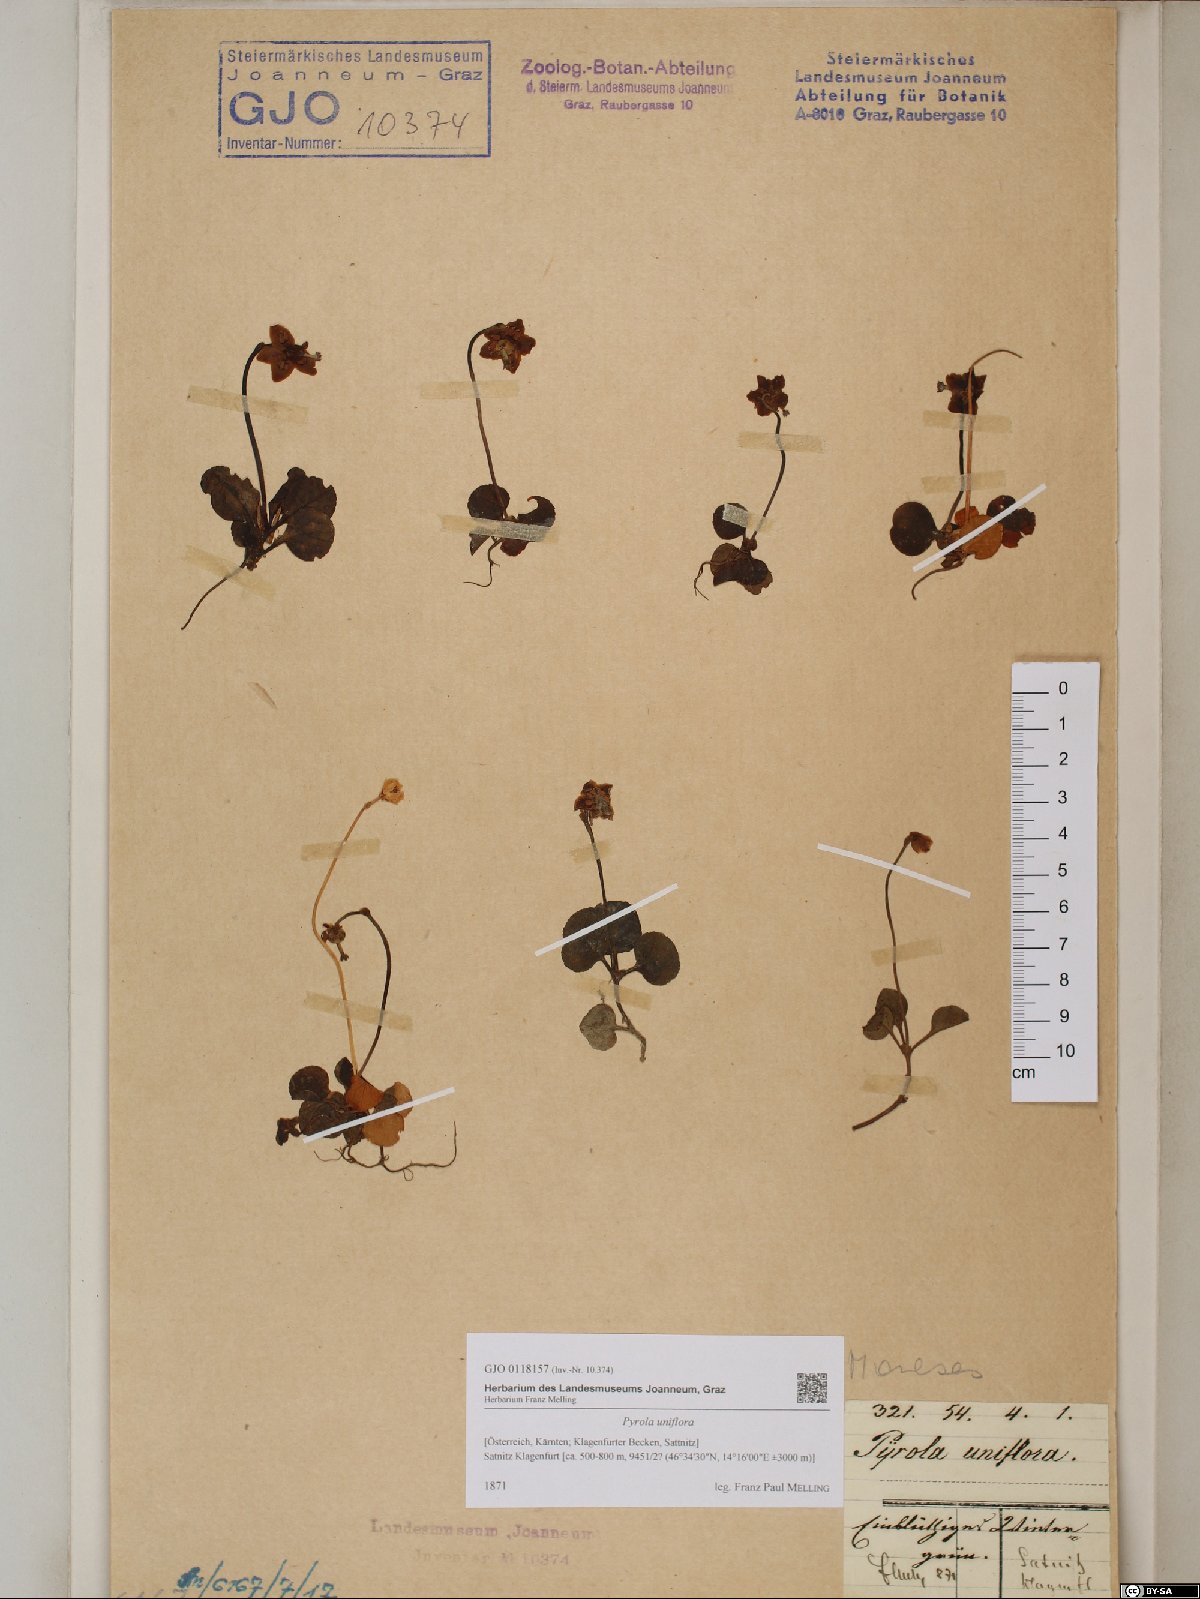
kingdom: Plantae
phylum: Tracheophyta
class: Magnoliopsida
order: Ericales
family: Ericaceae
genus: Moneses
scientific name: Moneses uniflora
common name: One-flowered wintergreen
